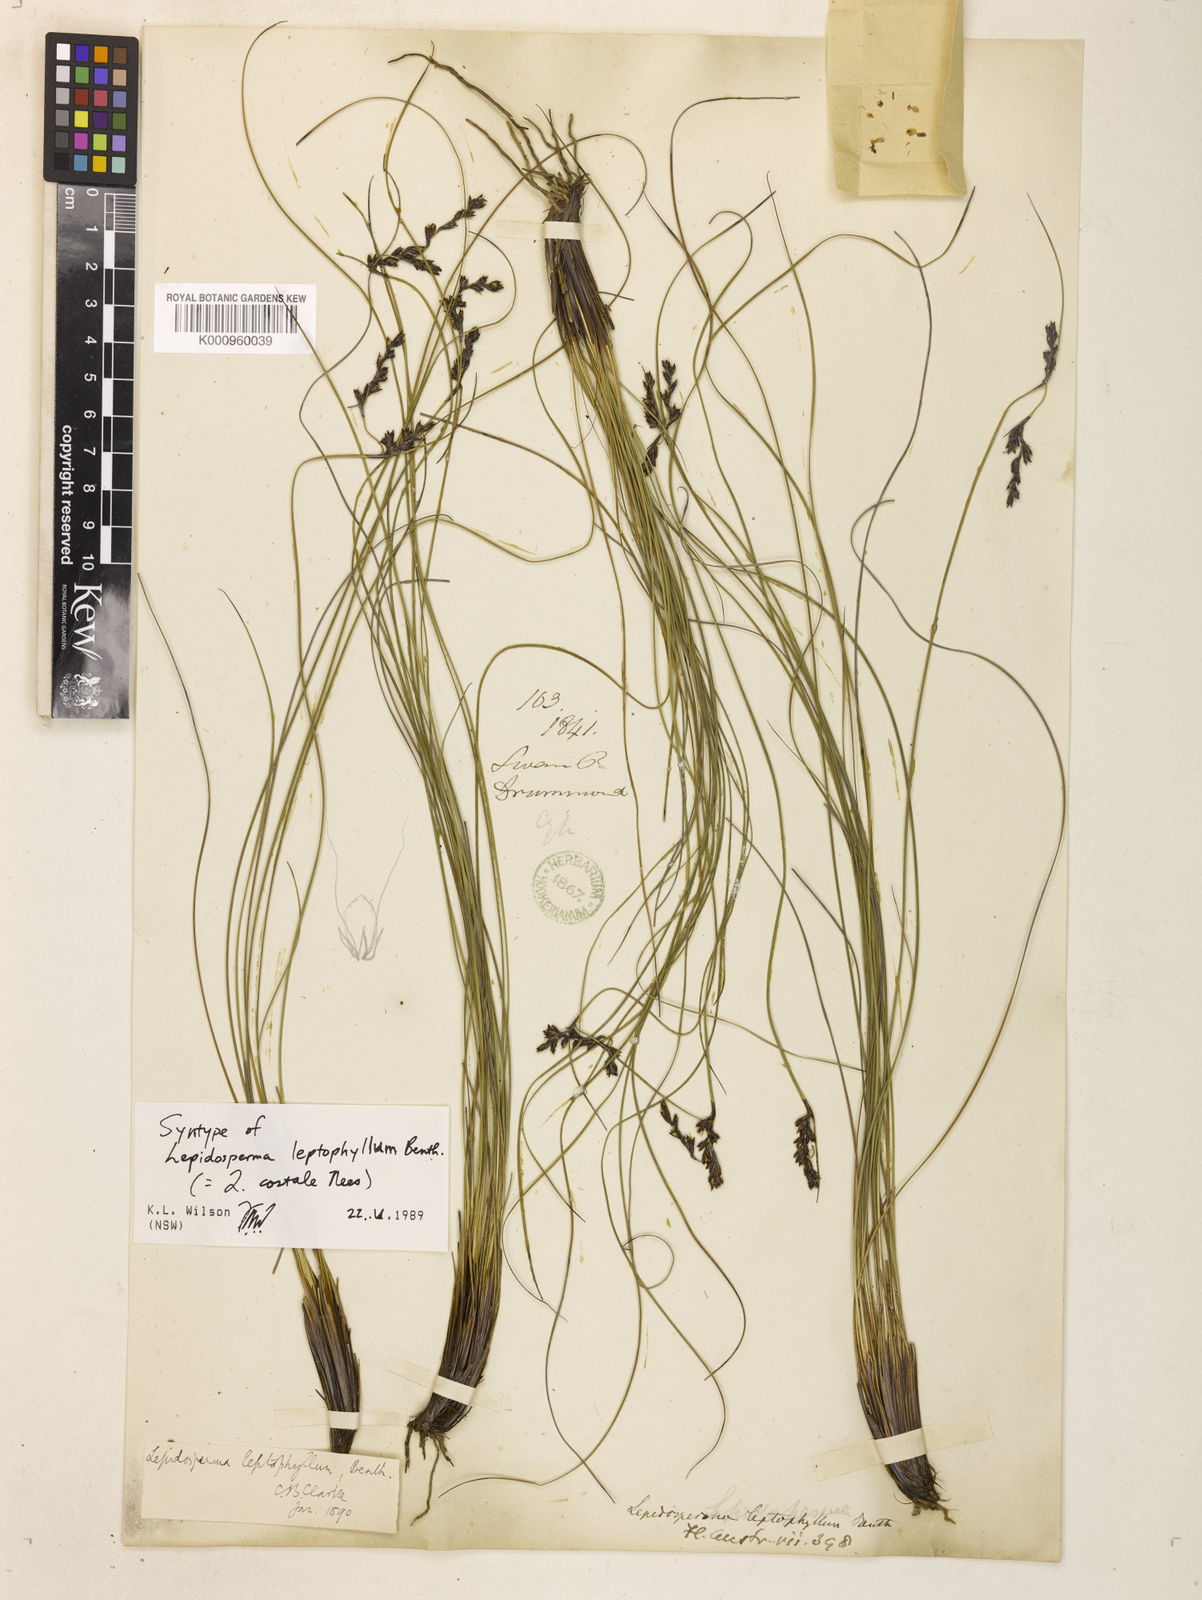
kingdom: Plantae
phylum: Tracheophyta
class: Liliopsida
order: Poales
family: Cyperaceae
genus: Lepidosperma
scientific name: Lepidosperma leptophyllum
